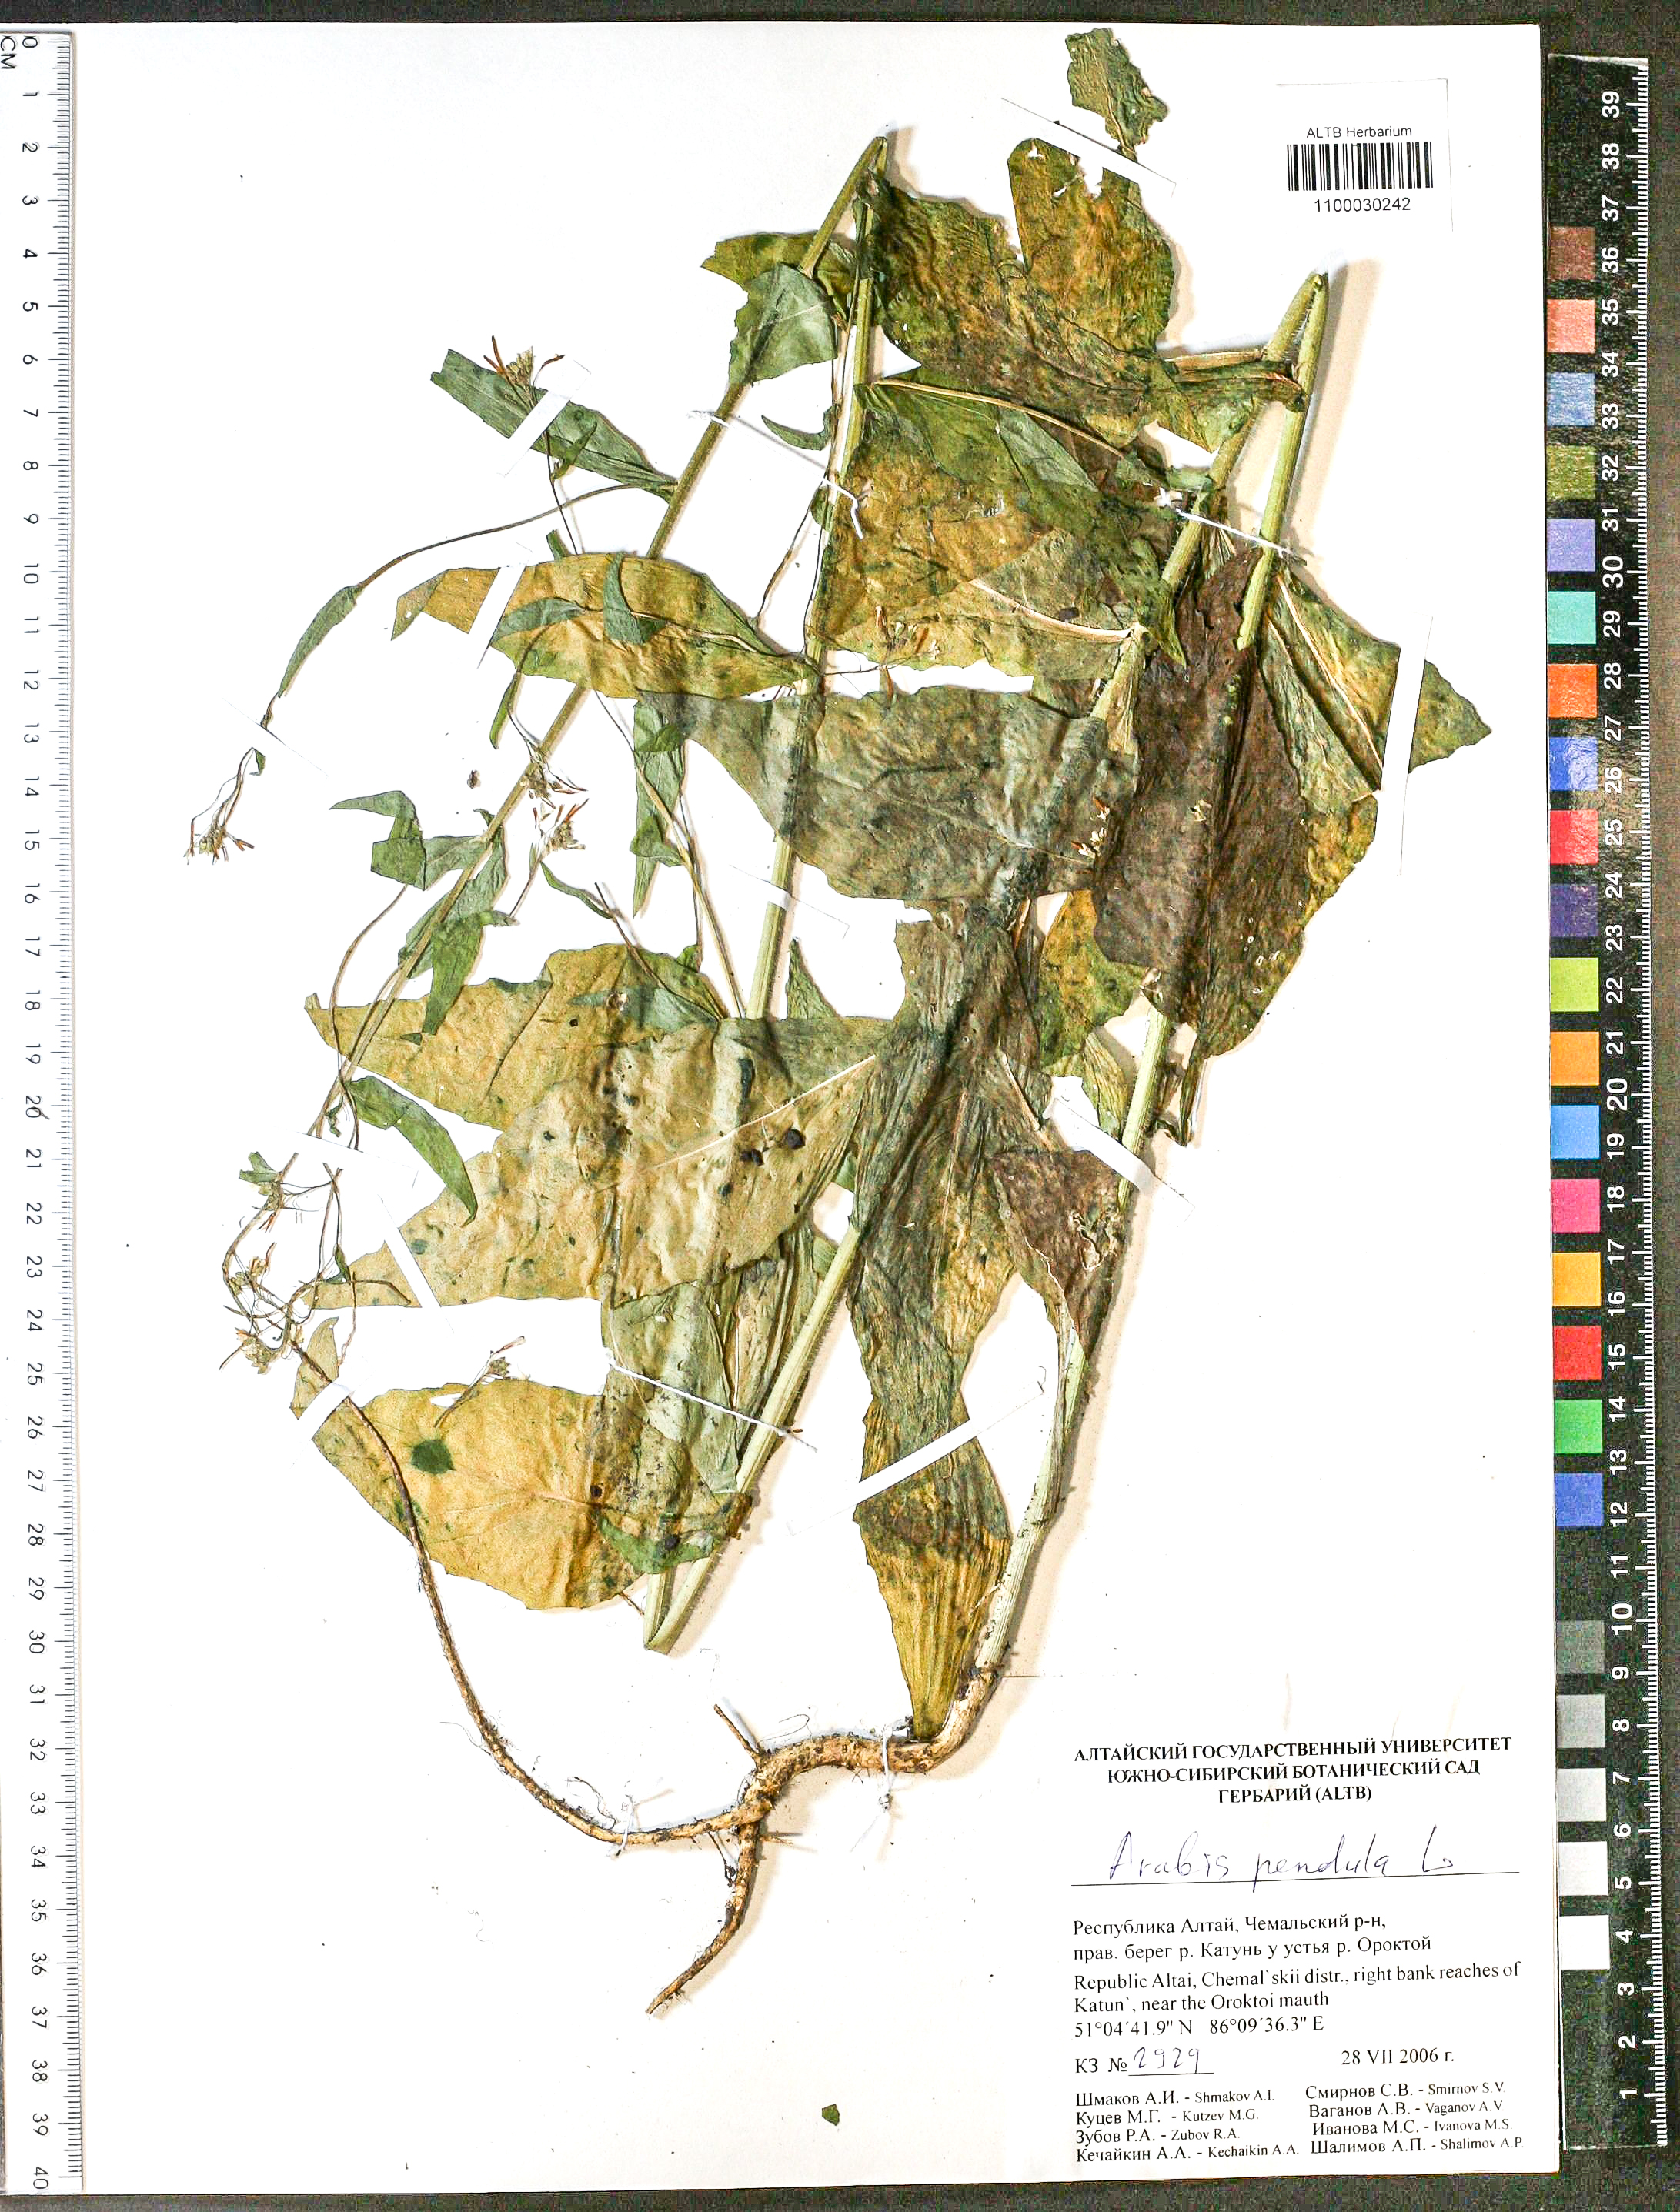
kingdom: Plantae
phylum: Tracheophyta
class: Magnoliopsida
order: Brassicales
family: Brassicaceae
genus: Catolobus
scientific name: Catolobus pendulus
